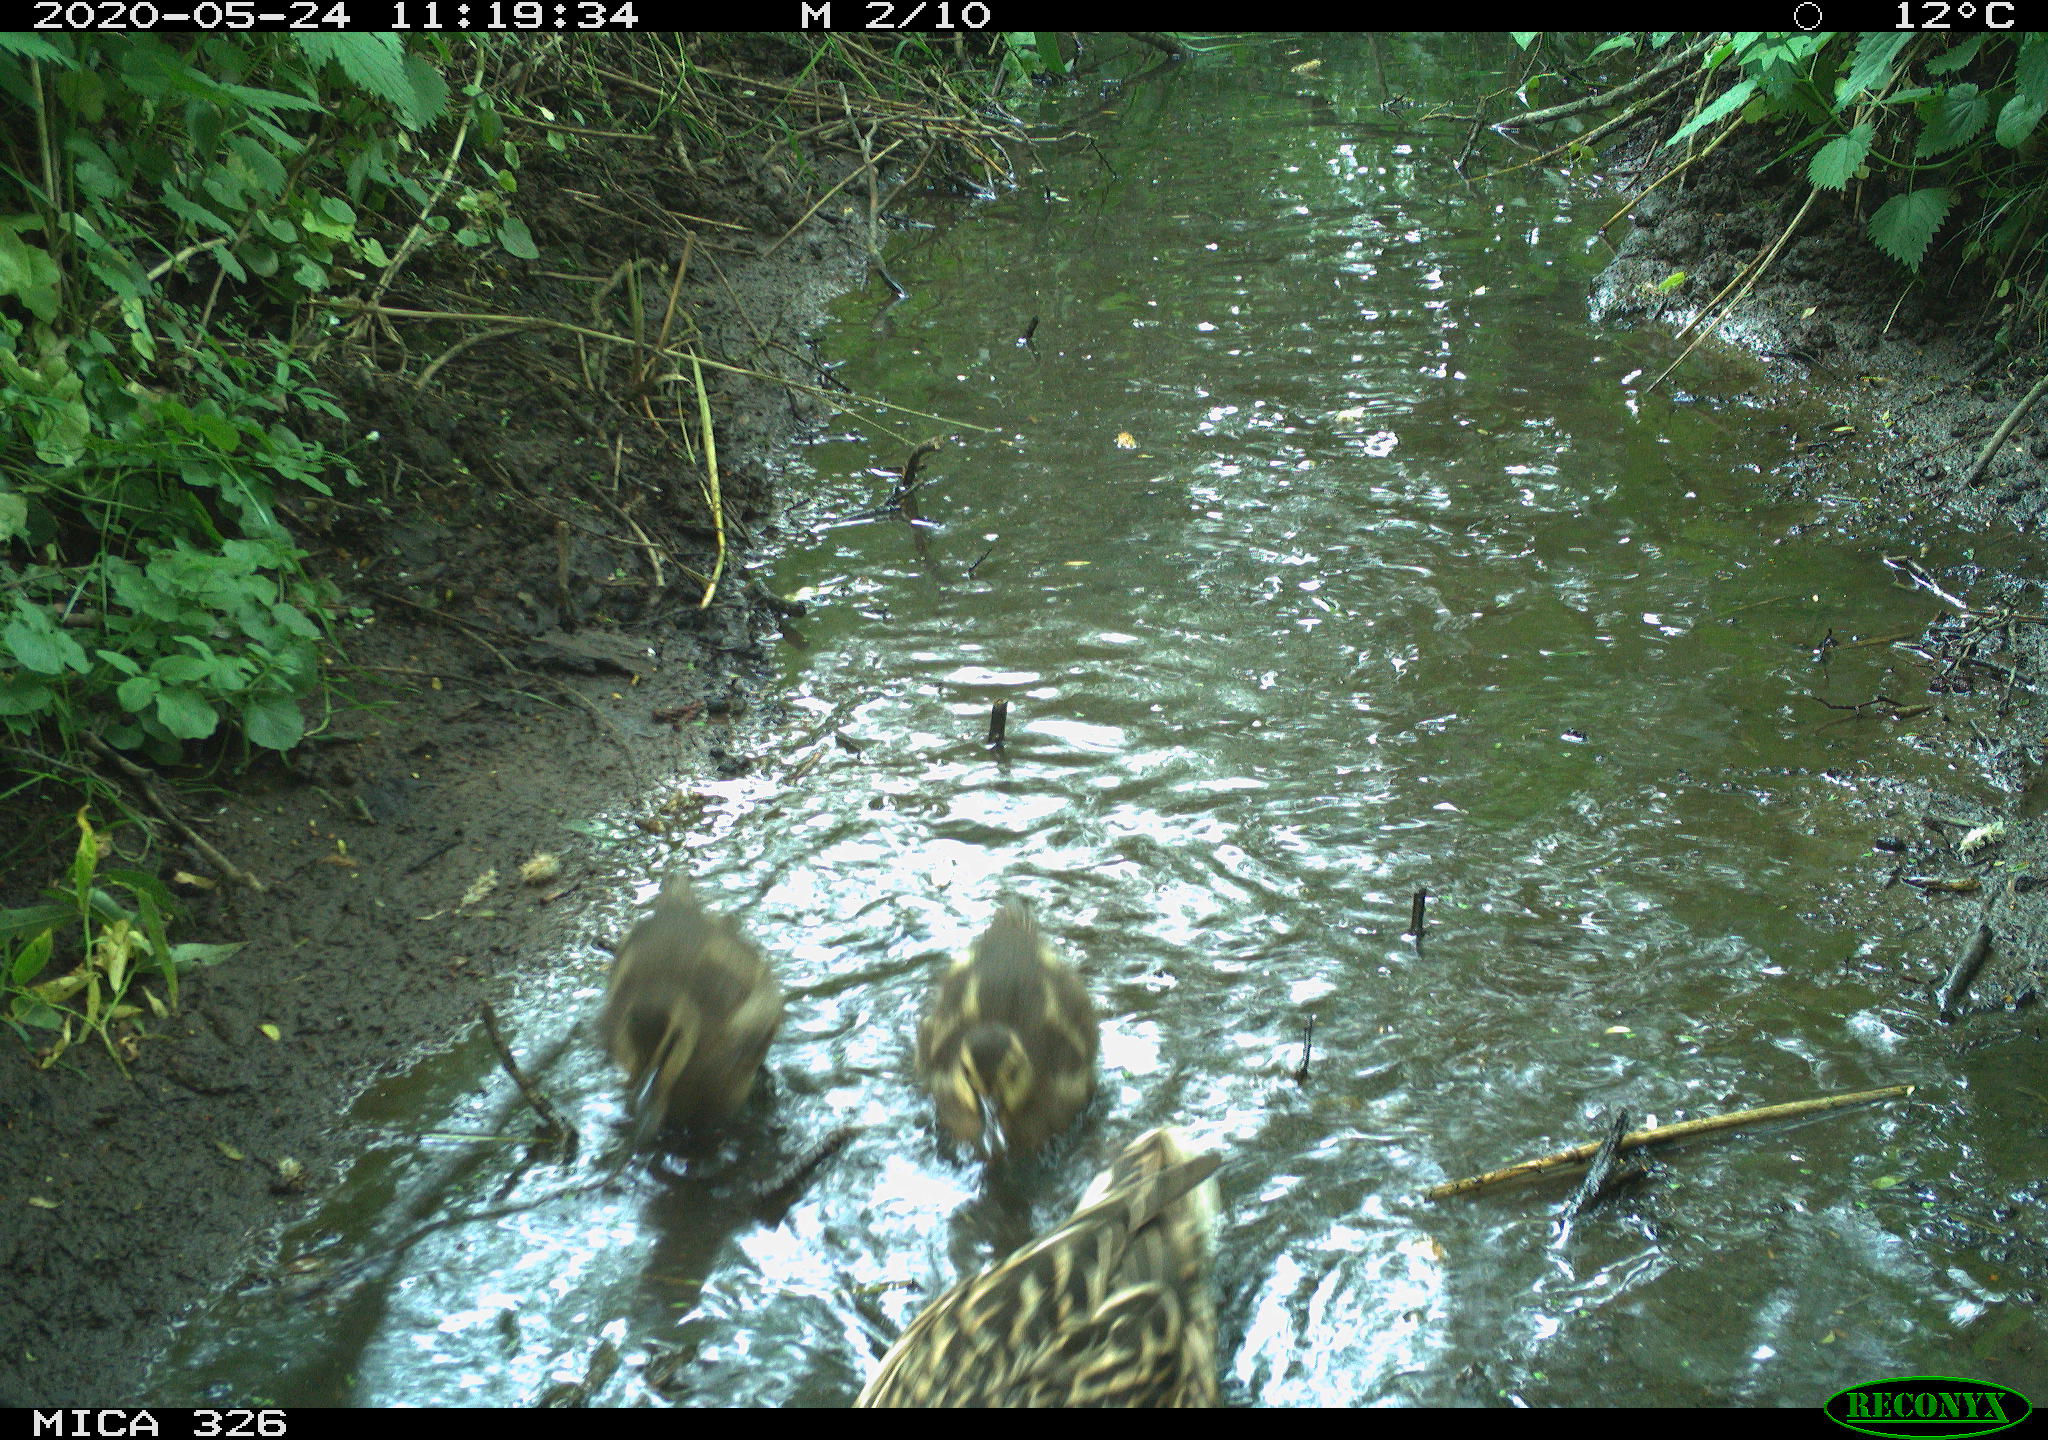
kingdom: Animalia
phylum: Chordata
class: Aves
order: Anseriformes
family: Anatidae
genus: Anas
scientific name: Anas platyrhynchos
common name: Mallard
